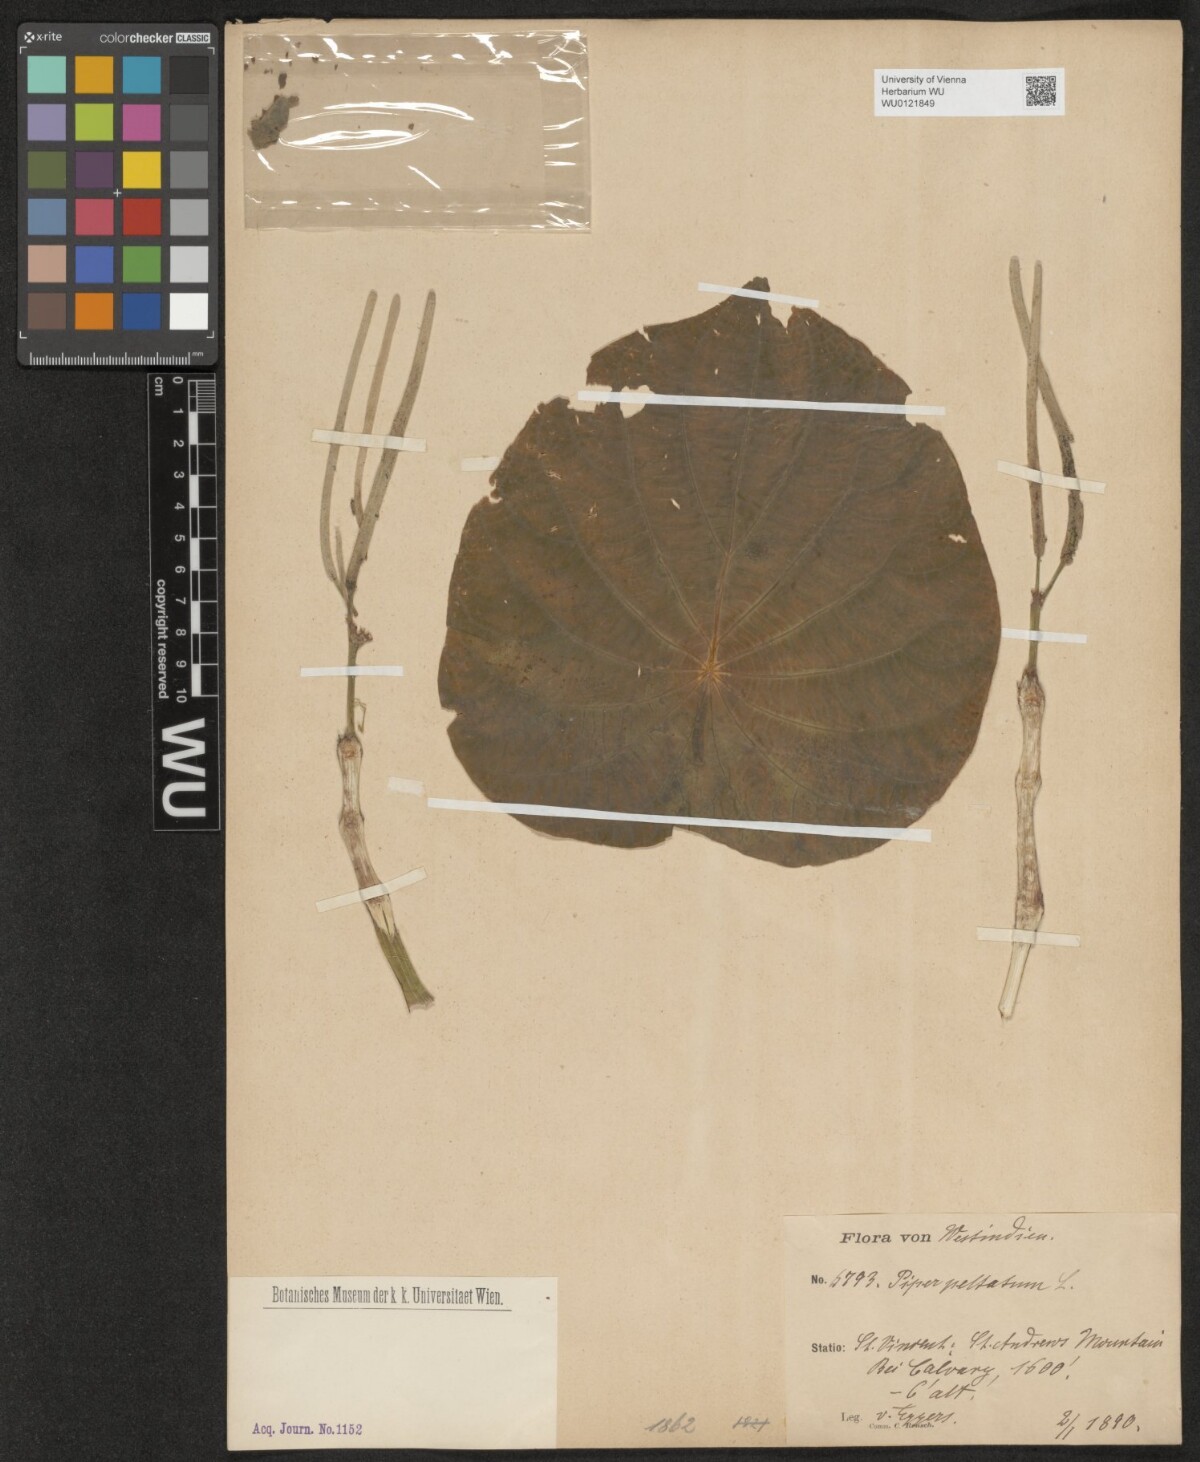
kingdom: Plantae
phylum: Tracheophyta
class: Magnoliopsida
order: Piperales
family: Piperaceae
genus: Piper
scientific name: Piper peltatum
